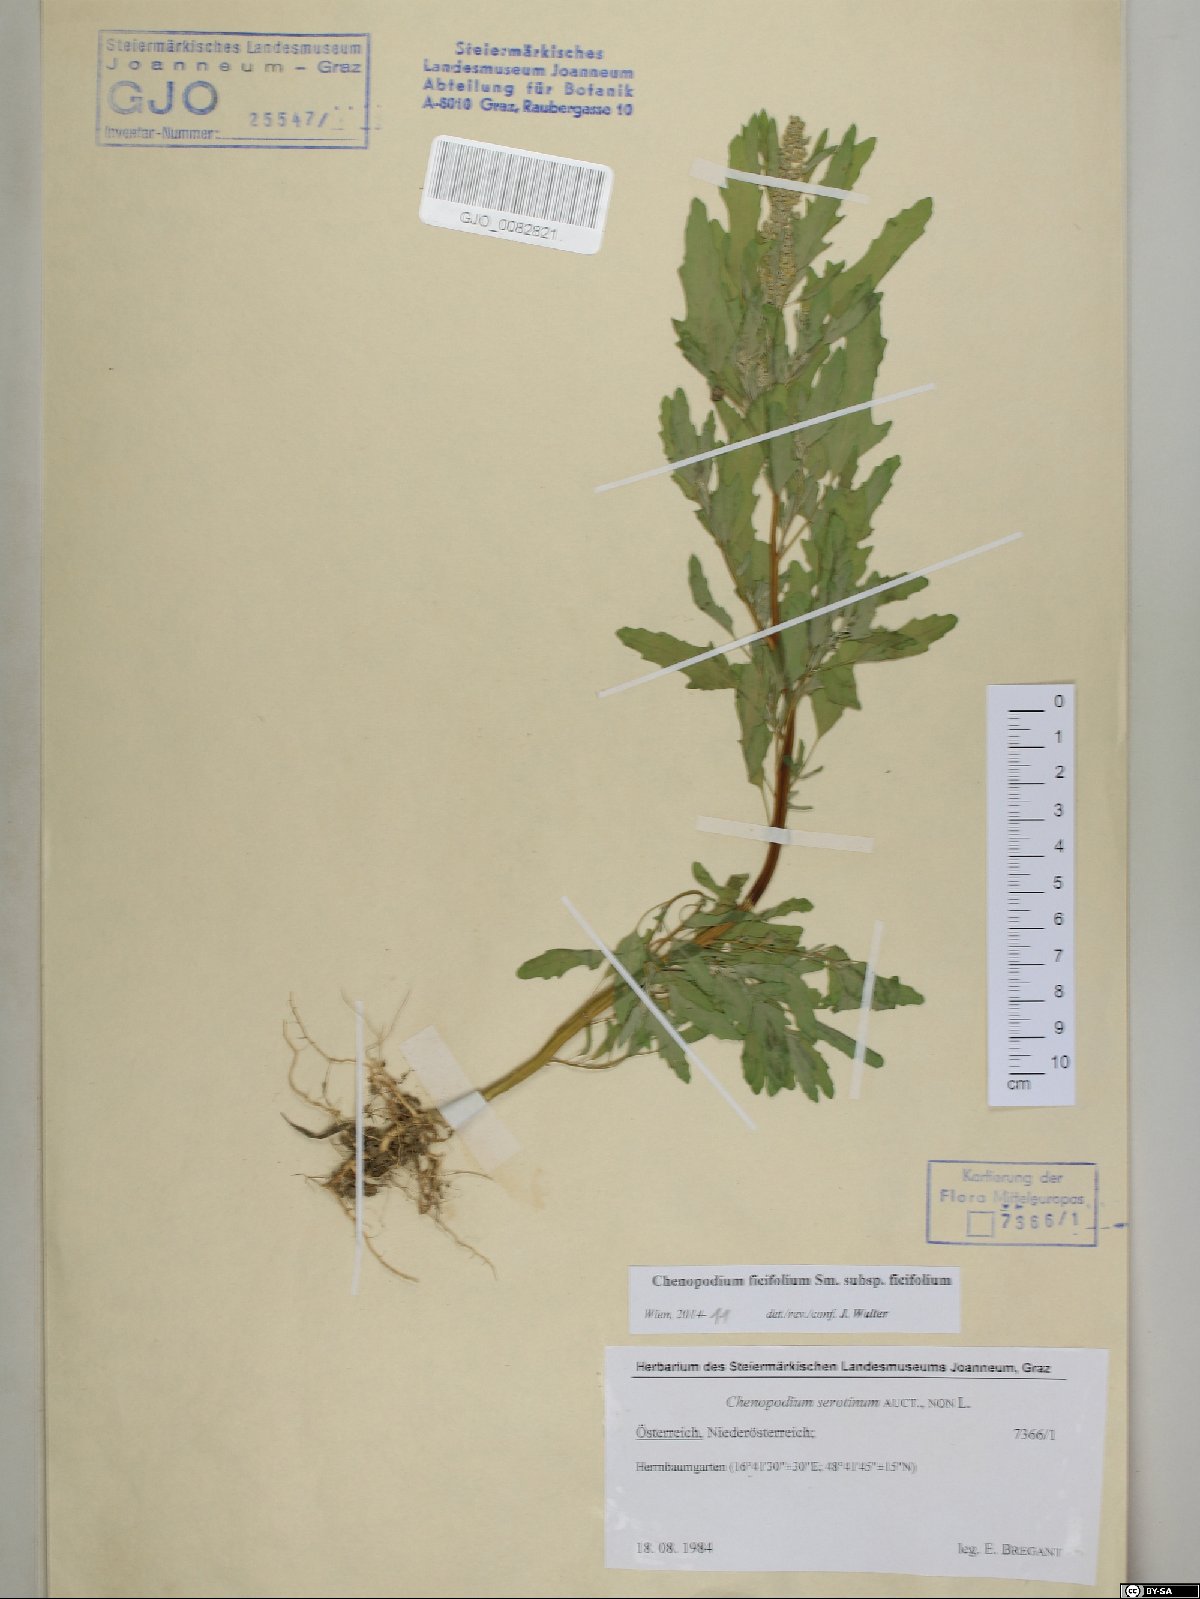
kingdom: Plantae
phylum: Tracheophyta
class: Magnoliopsida
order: Caryophyllales
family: Amaranthaceae
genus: Chenopodium
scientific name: Chenopodium ficifolium
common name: Fig-leaved goosefoot
